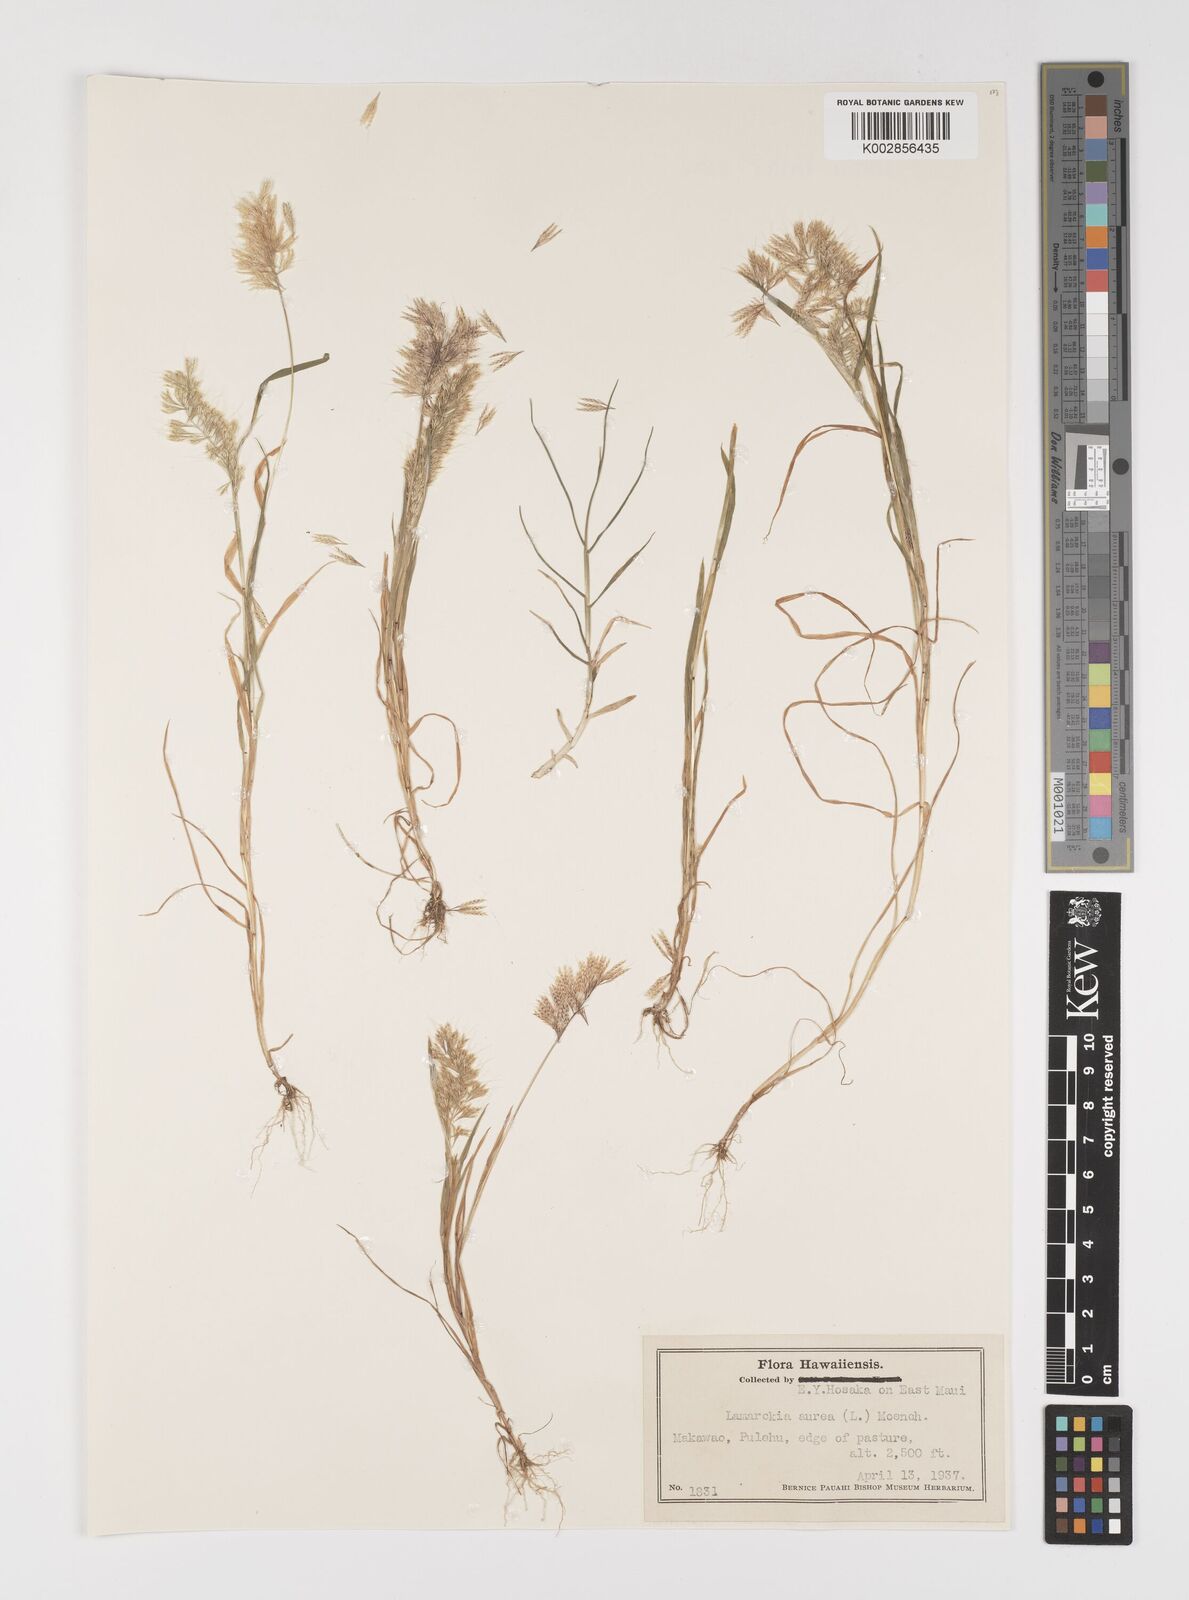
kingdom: Plantae
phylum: Tracheophyta
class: Liliopsida
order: Poales
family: Poaceae
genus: Lamarckia
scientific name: Lamarckia aurea
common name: Golden dog's-tail
